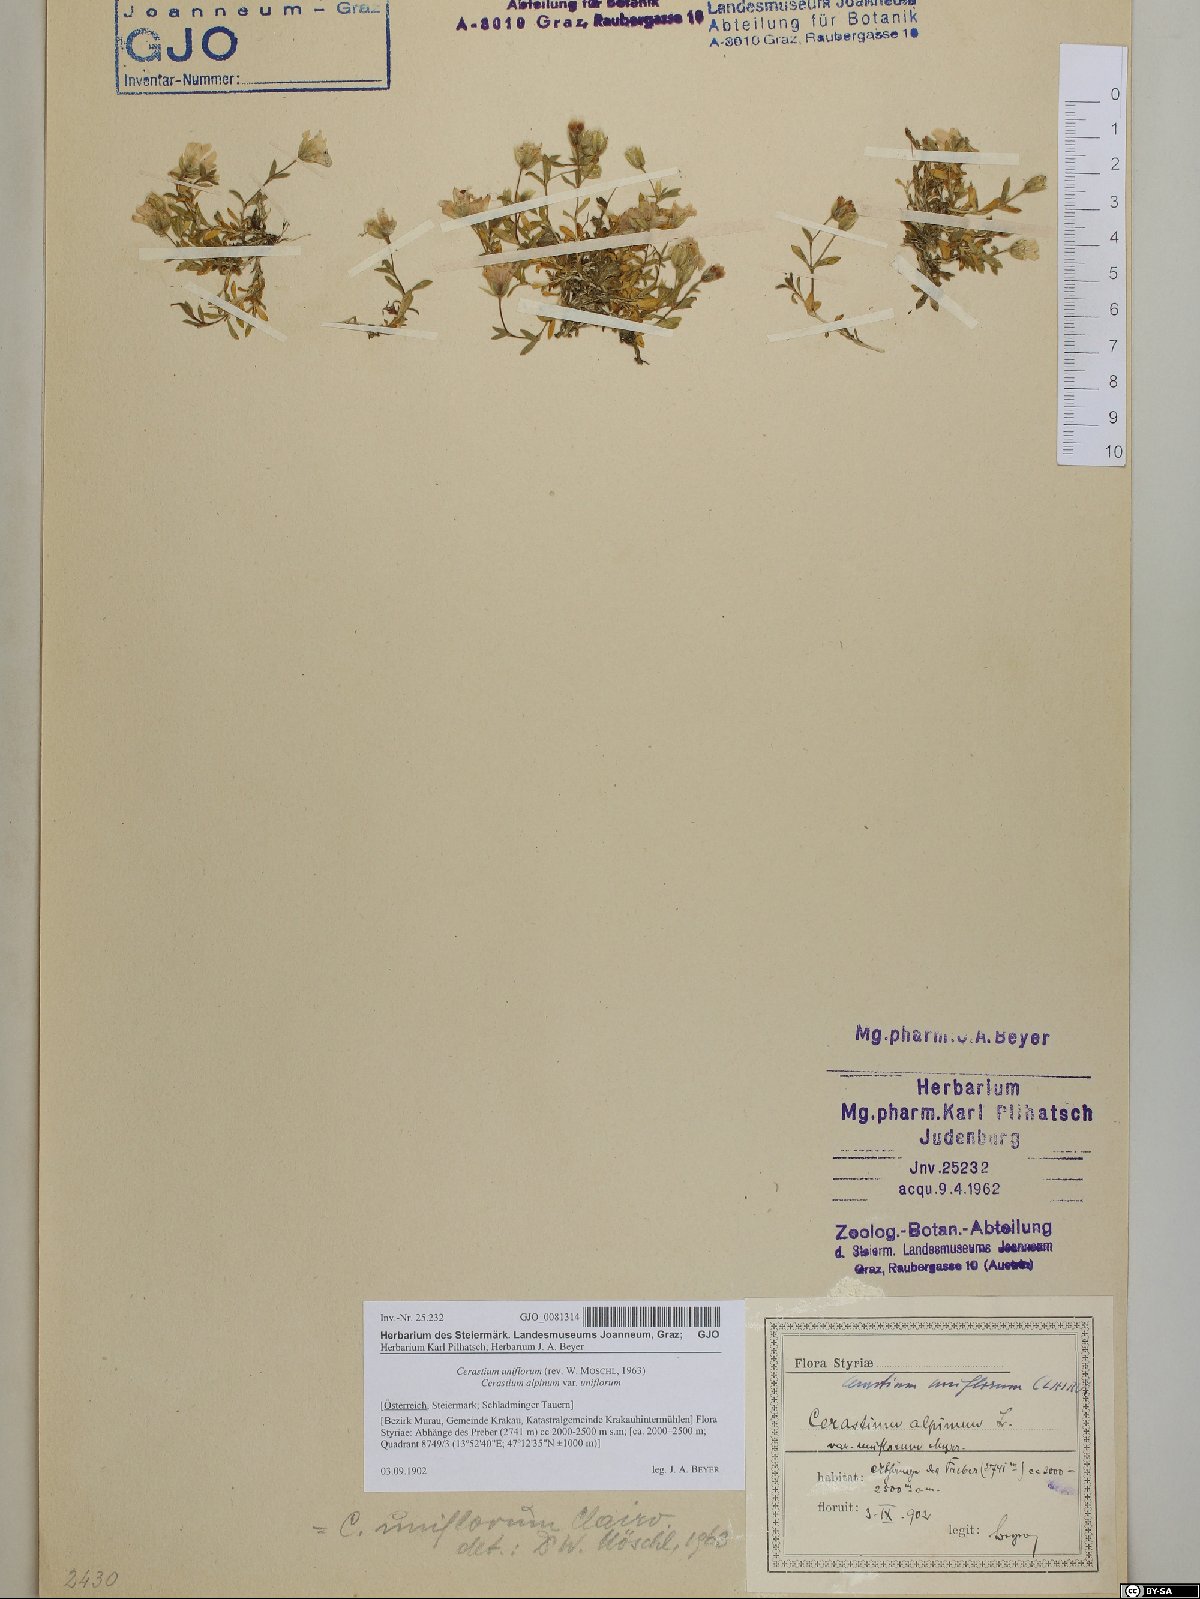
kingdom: Plantae
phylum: Tracheophyta
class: Magnoliopsida
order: Caryophyllales
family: Caryophyllaceae
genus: Cerastium
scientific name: Cerastium uniflorum
